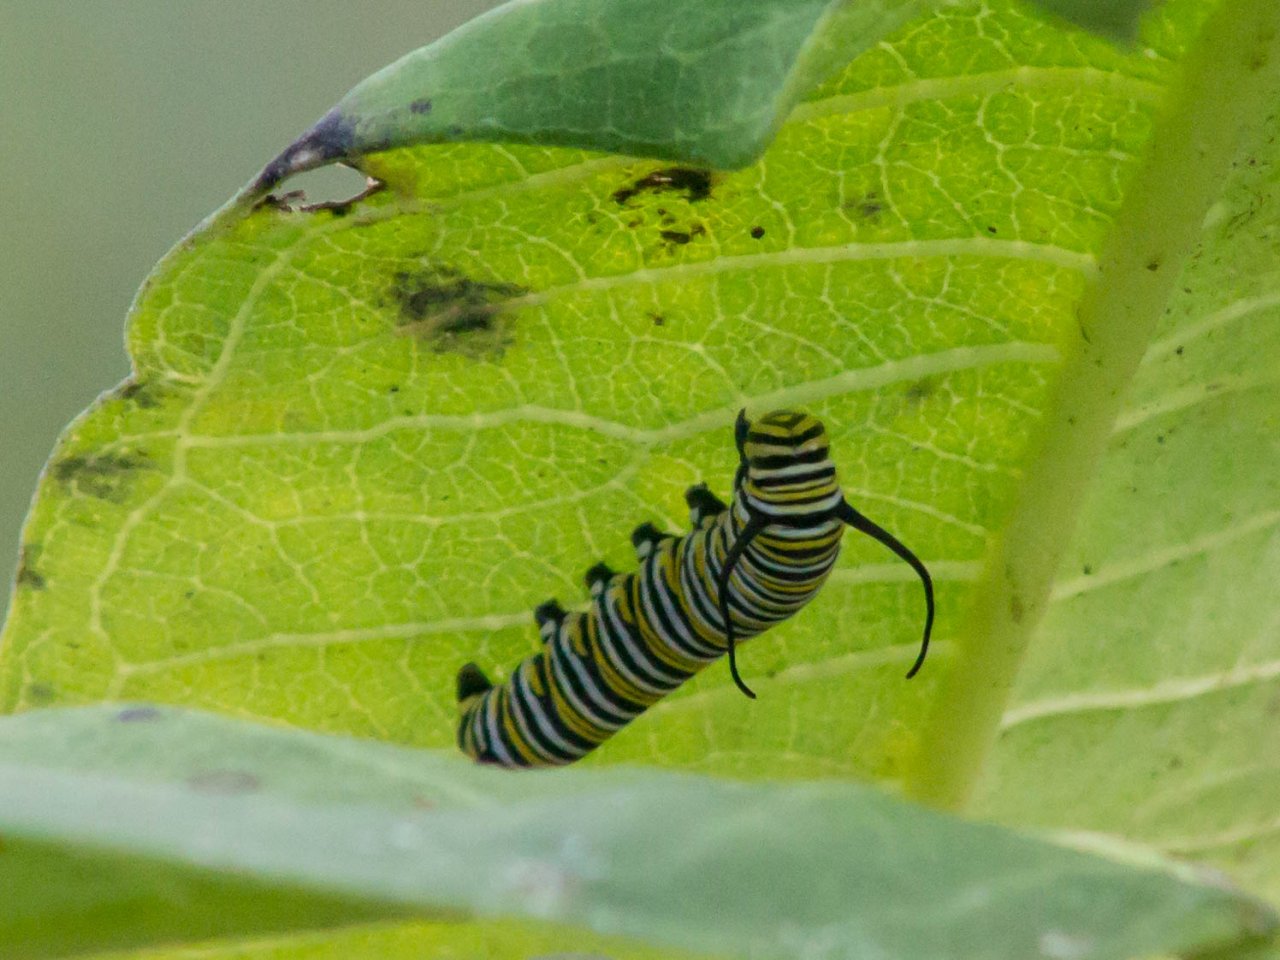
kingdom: Animalia
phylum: Arthropoda
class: Insecta
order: Lepidoptera
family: Nymphalidae
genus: Danaus
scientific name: Danaus plexippus
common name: Monarch
